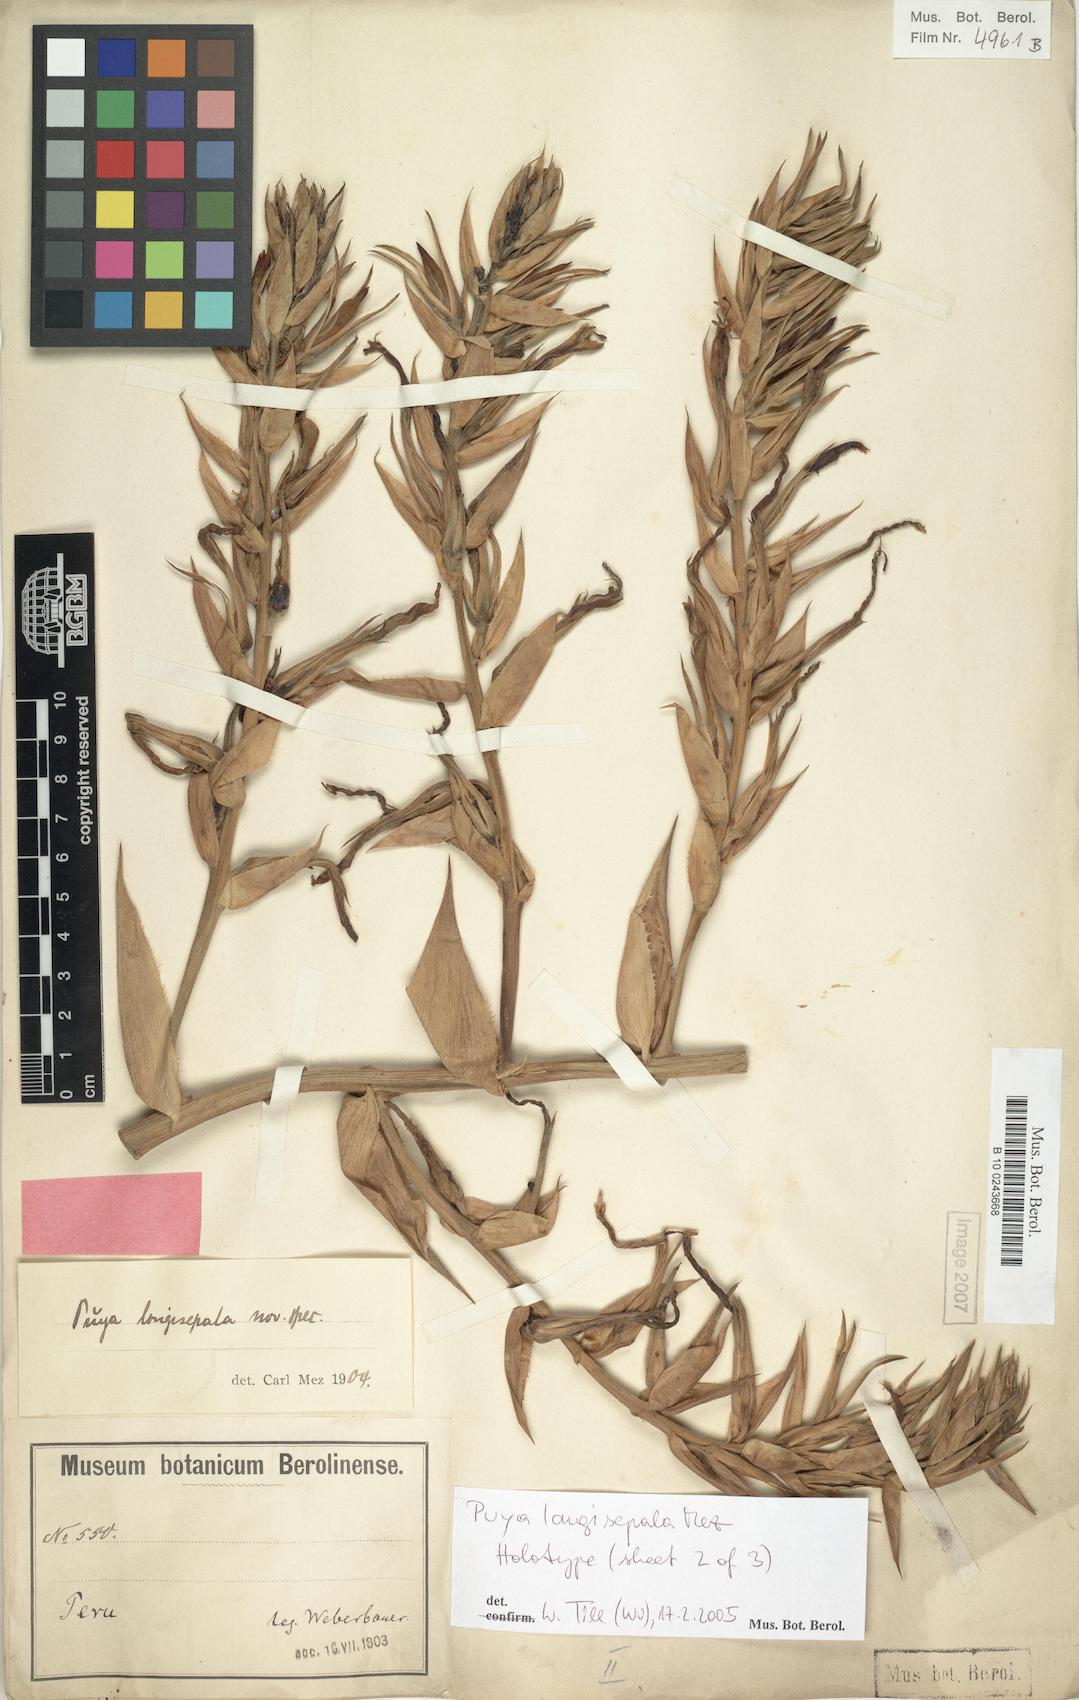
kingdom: Plantae
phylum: Tracheophyta
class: Liliopsida
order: Poales
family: Bromeliaceae
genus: Puya
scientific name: Puya longisepala
